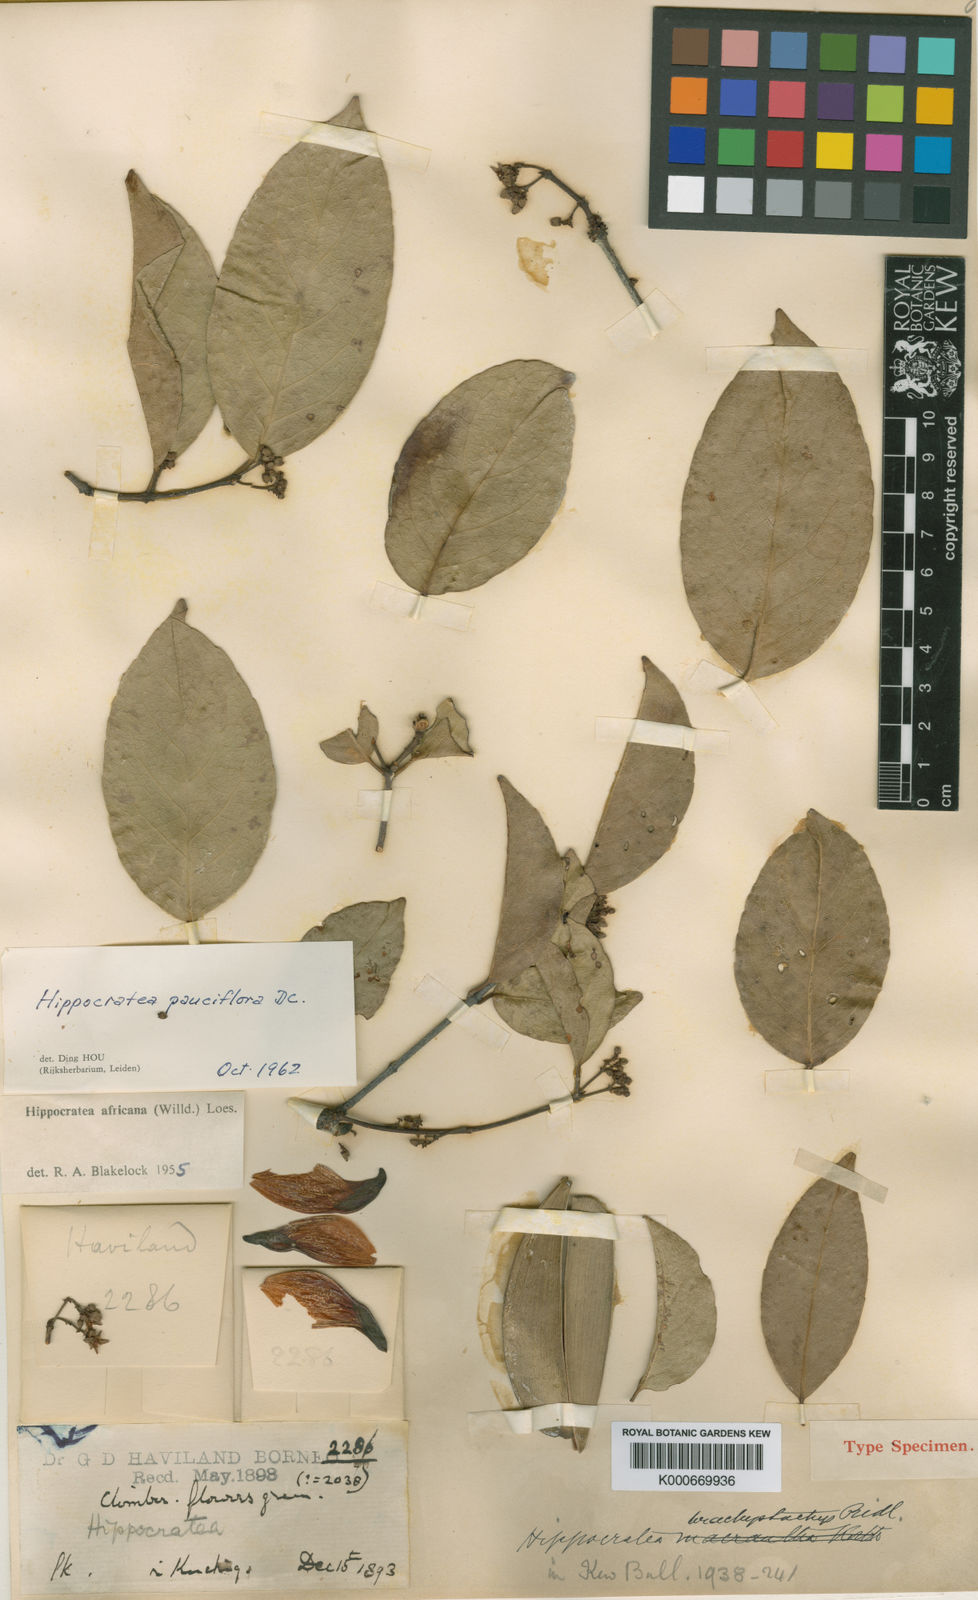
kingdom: Plantae
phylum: Tracheophyta
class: Magnoliopsida
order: Celastrales
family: Celastraceae
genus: Loeseneriella
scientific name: Loeseneriella pauciflora
